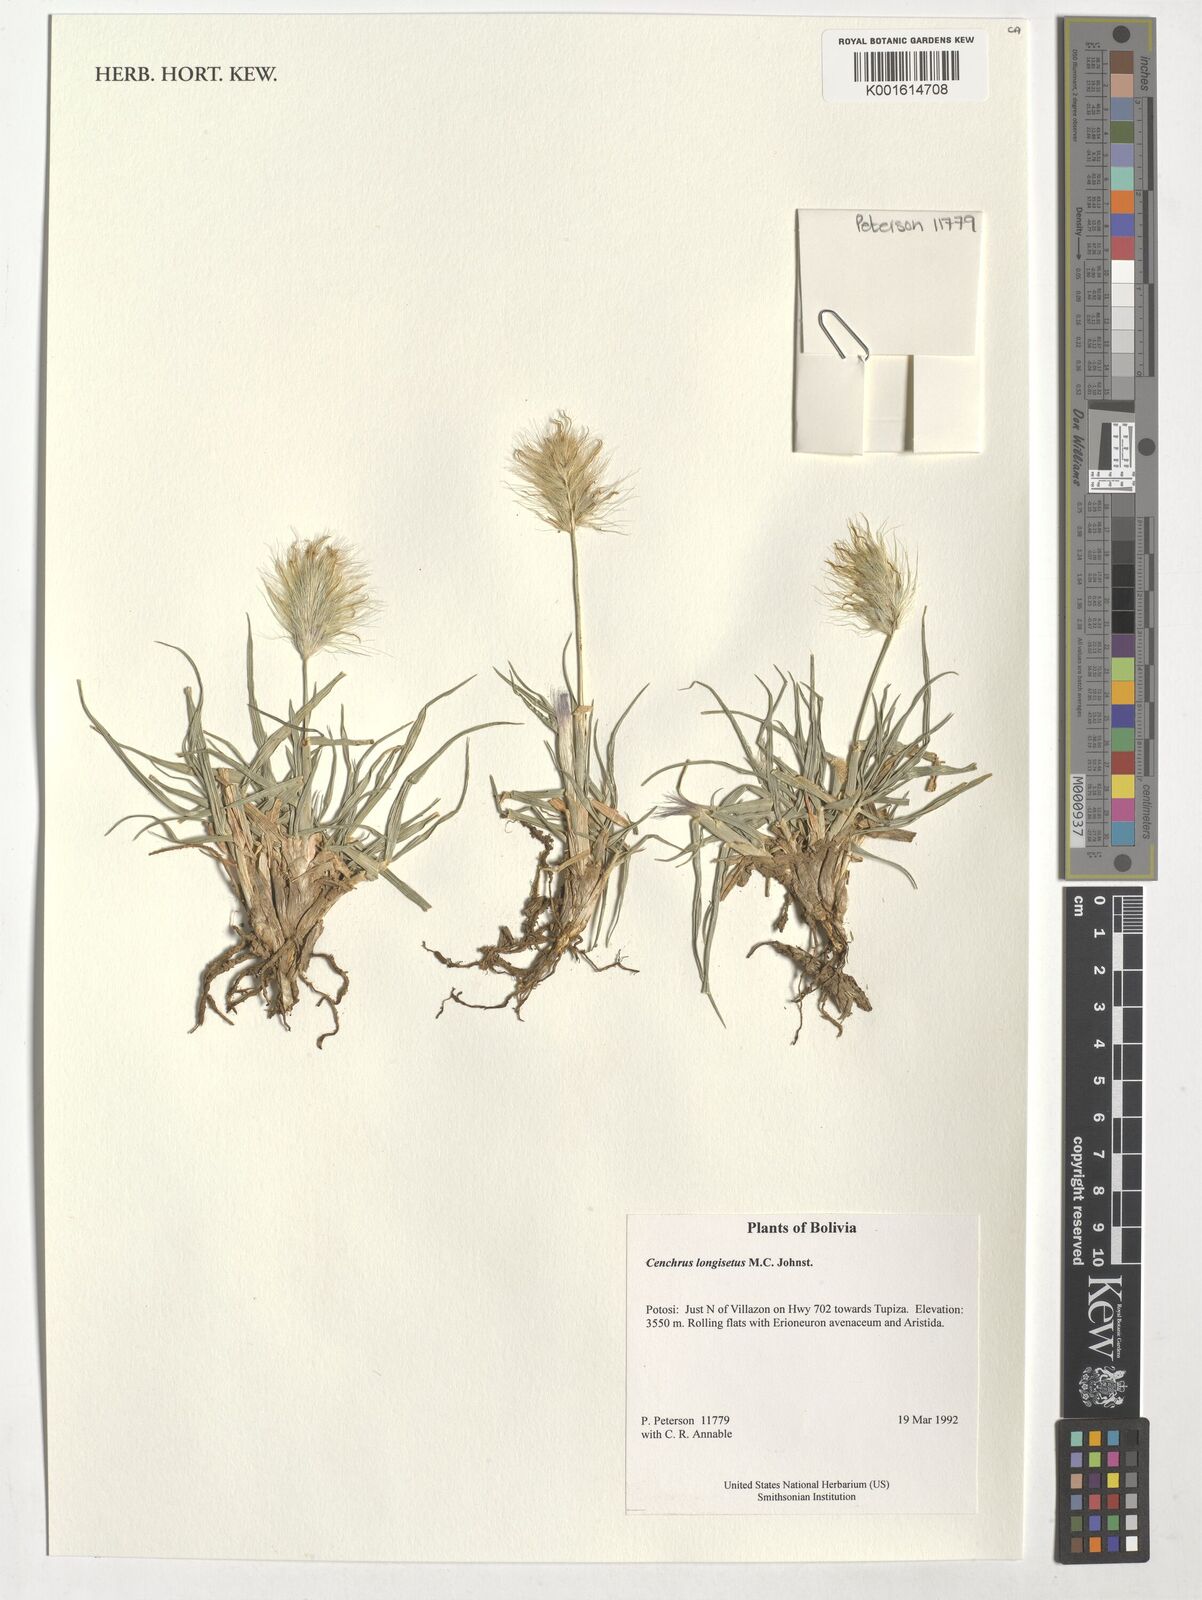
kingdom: Plantae
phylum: Tracheophyta
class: Liliopsida
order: Poales
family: Poaceae
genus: Cenchrus
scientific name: Cenchrus longisetus
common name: Feathertop
